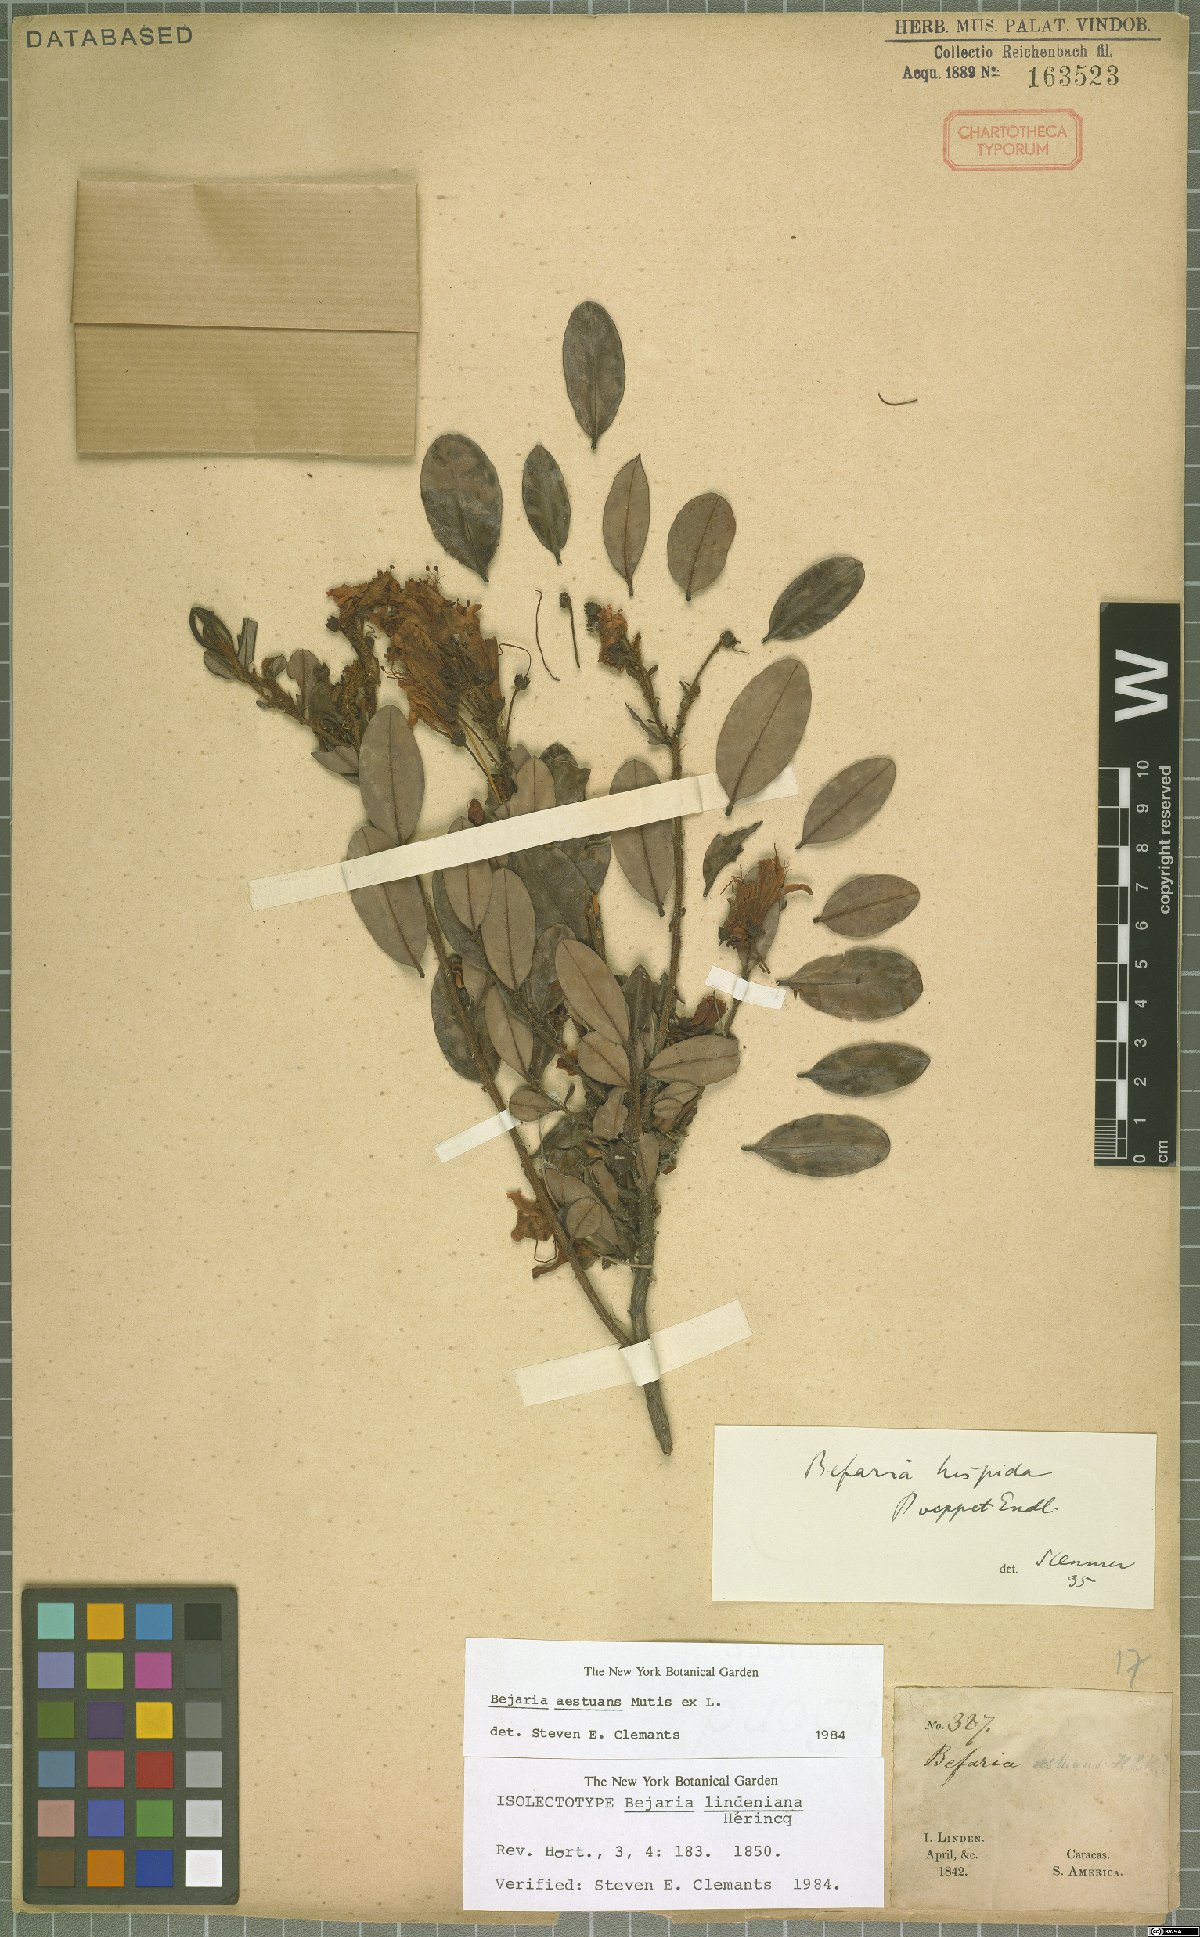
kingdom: Plantae
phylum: Tracheophyta
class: Magnoliopsida
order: Ericales
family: Ericaceae
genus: Bejaria
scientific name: Bejaria aestuans
